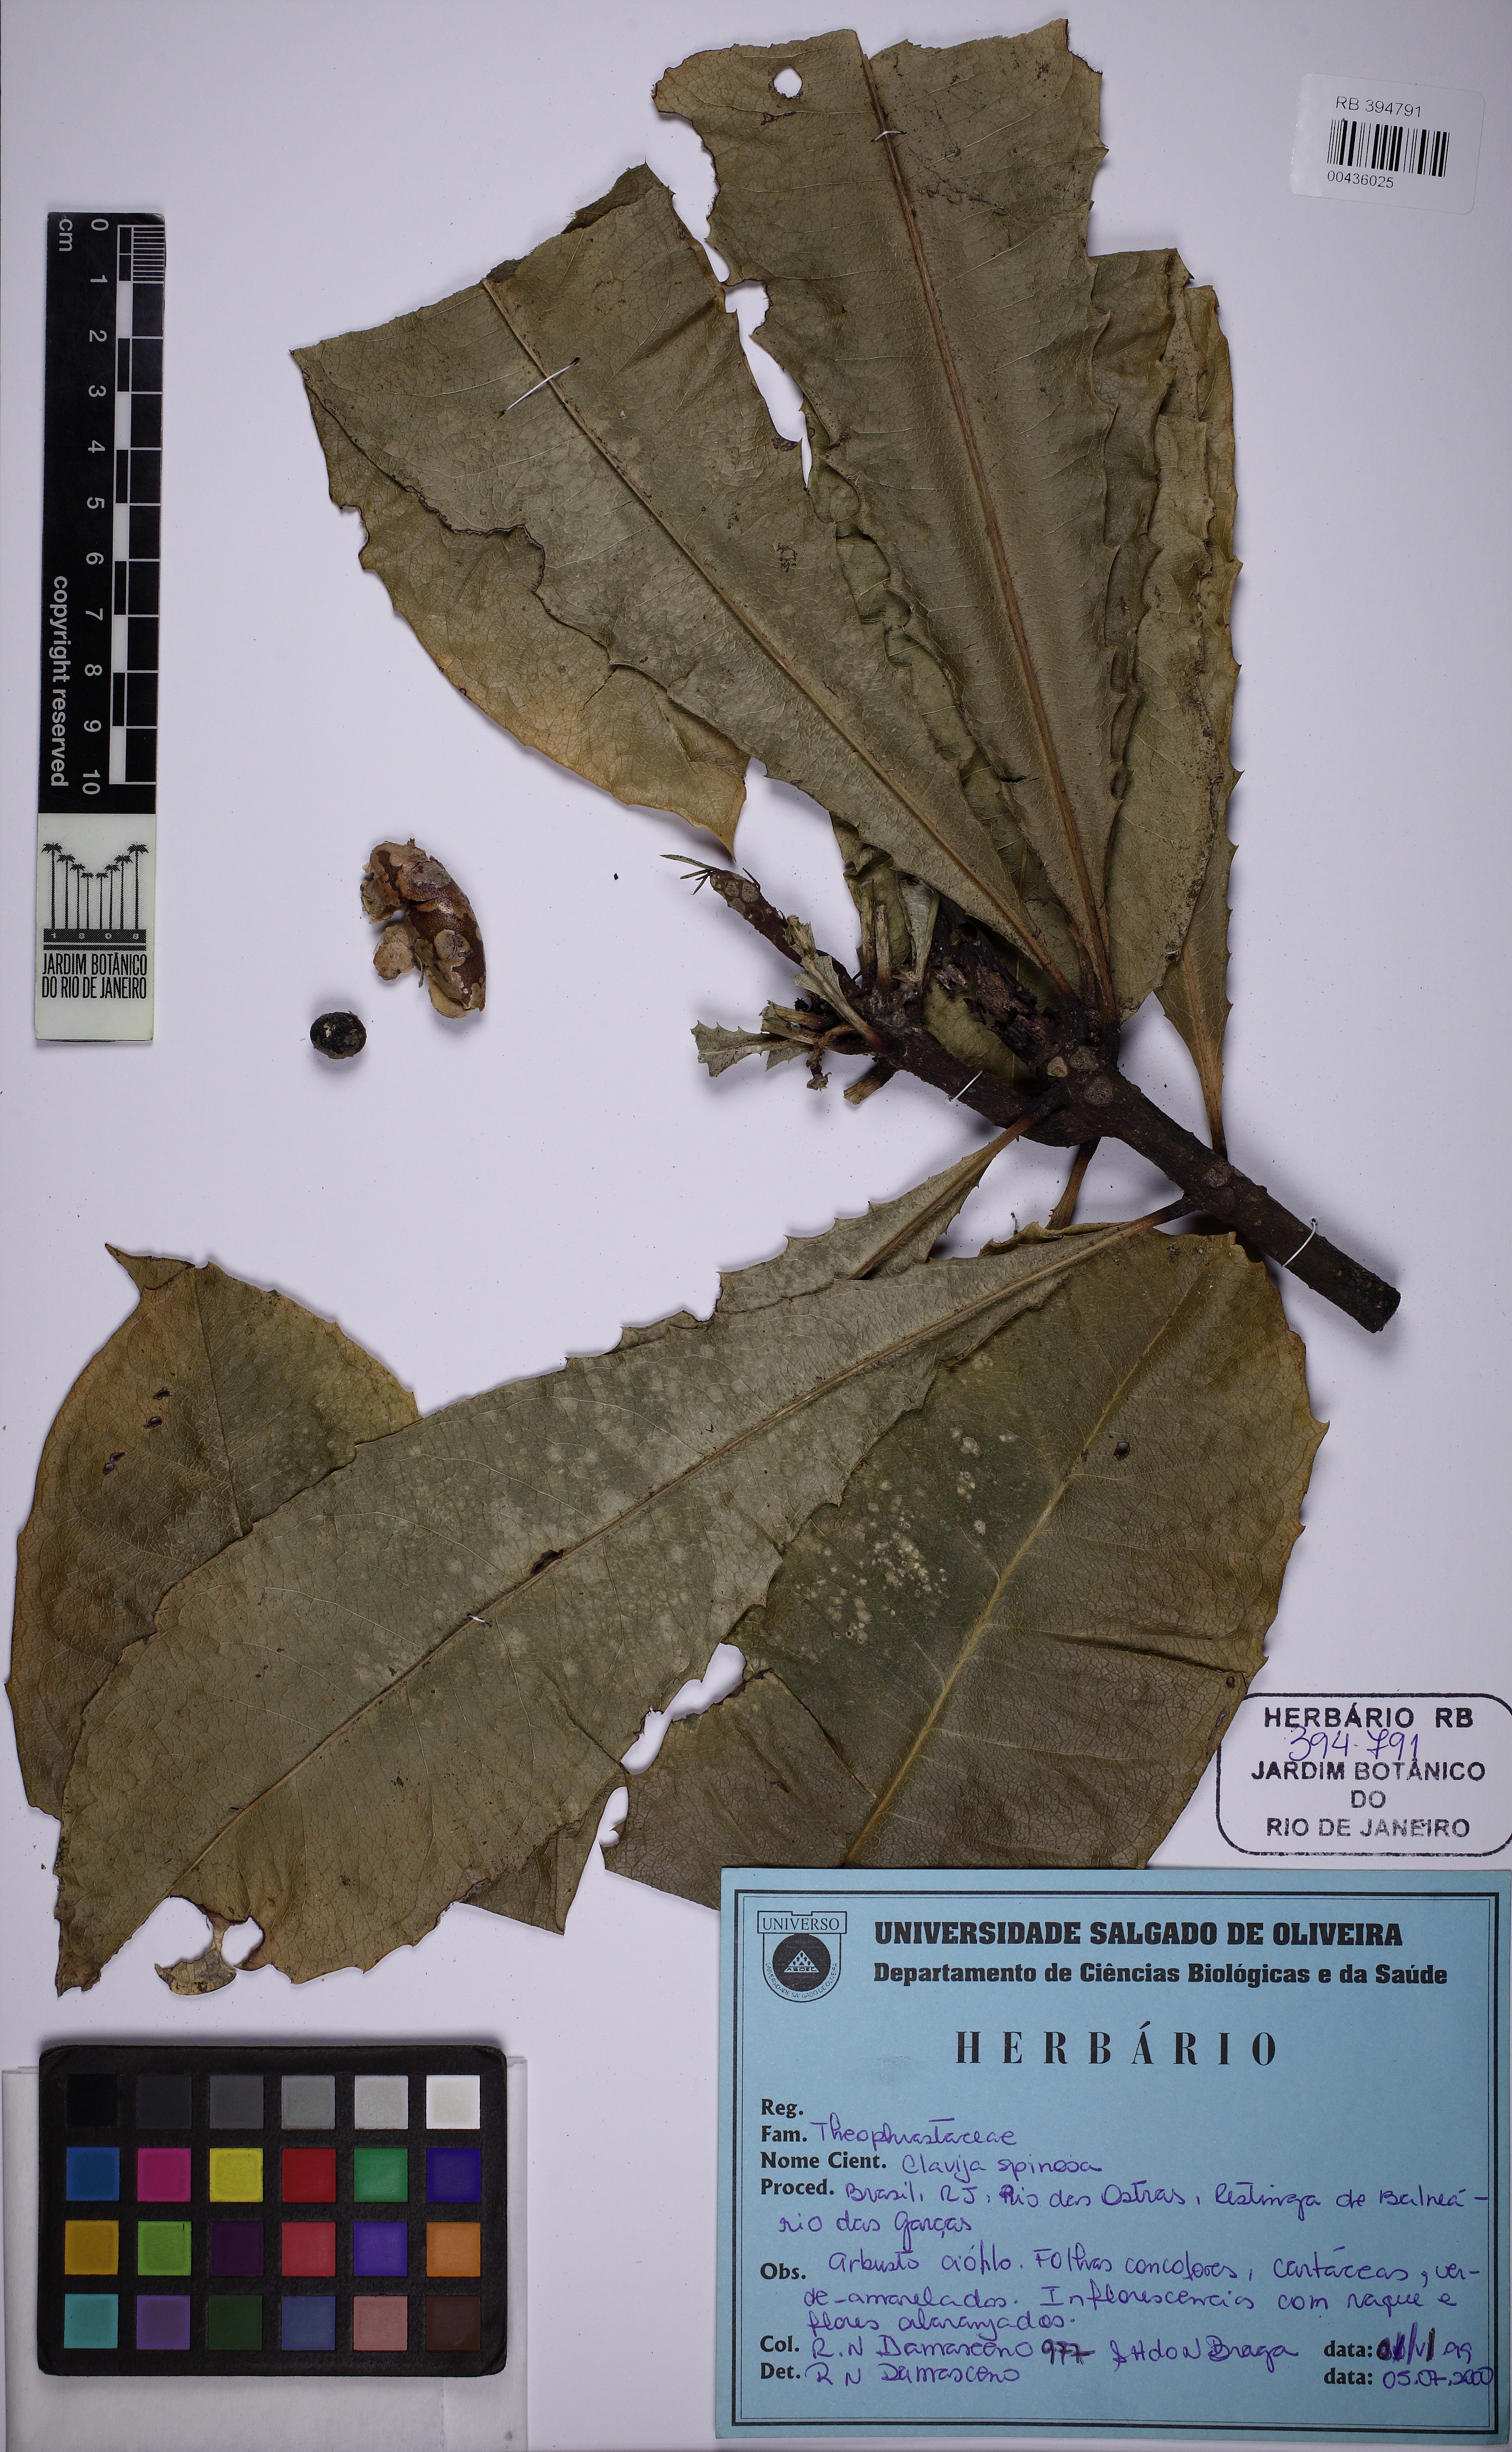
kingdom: Plantae
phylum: Tracheophyta
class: Magnoliopsida
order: Ericales
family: Primulaceae
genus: Clavija
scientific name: Clavija spinosa
